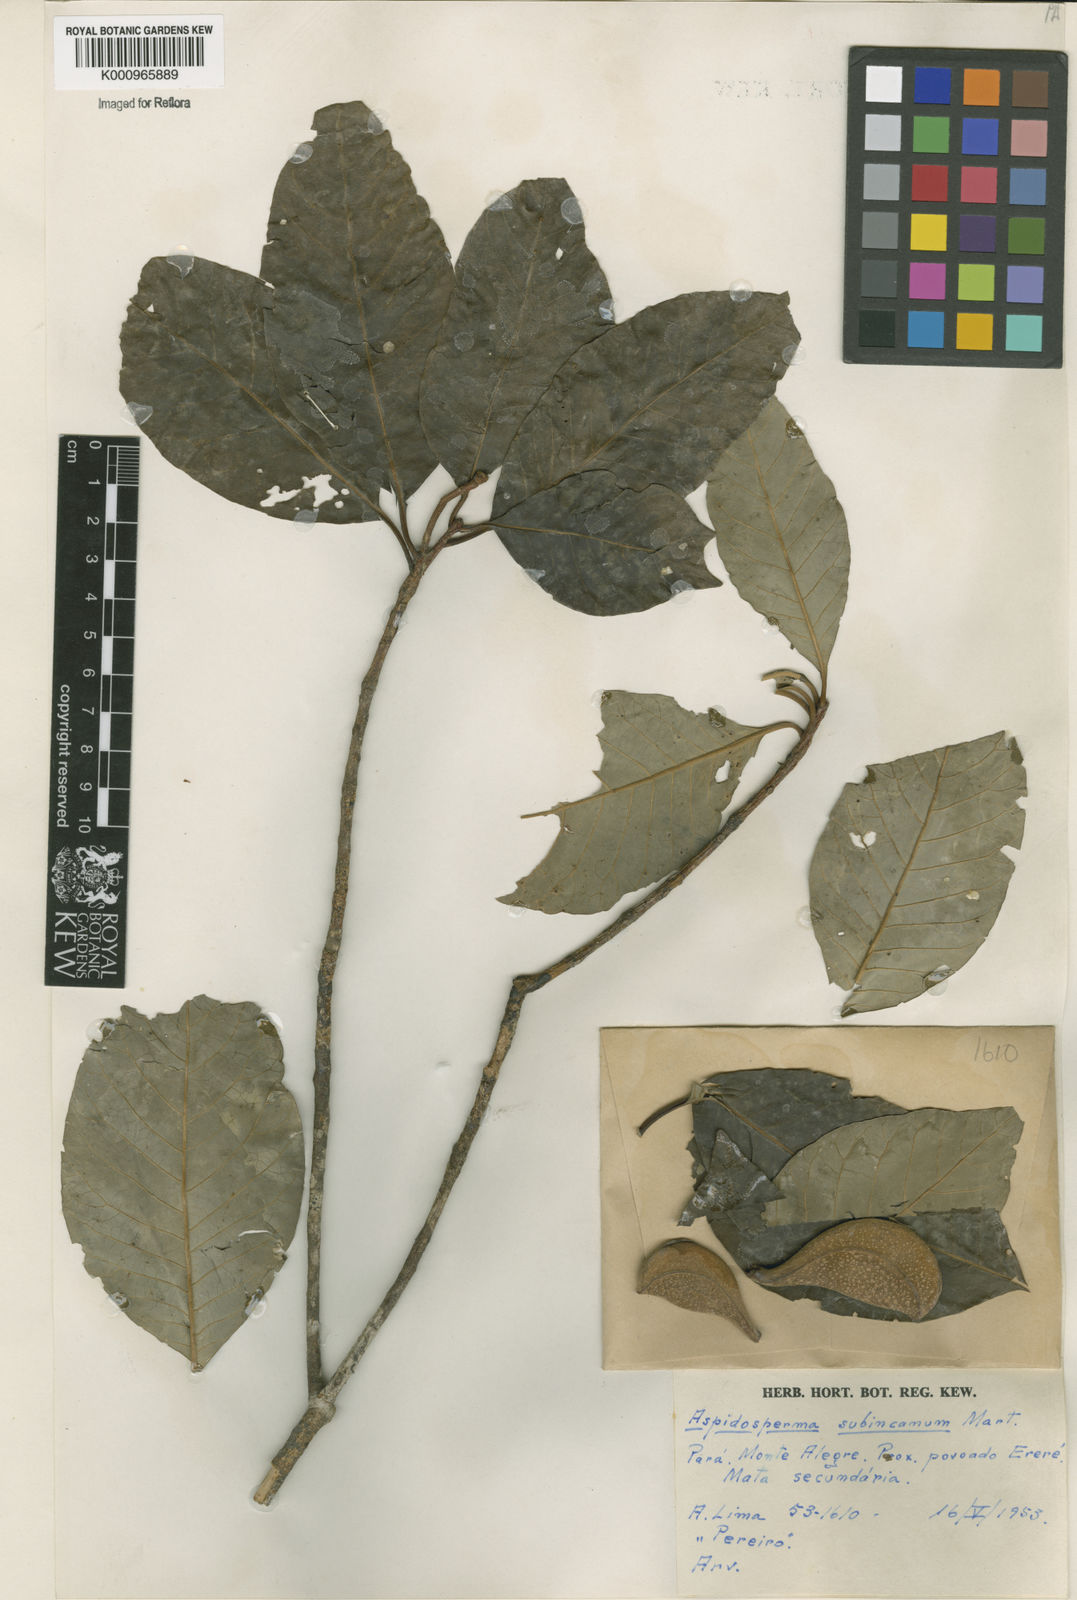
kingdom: Plantae
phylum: Tracheophyta
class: Magnoliopsida
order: Gentianales
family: Apocynaceae
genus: Aspidosperma
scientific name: Aspidosperma subincanum
